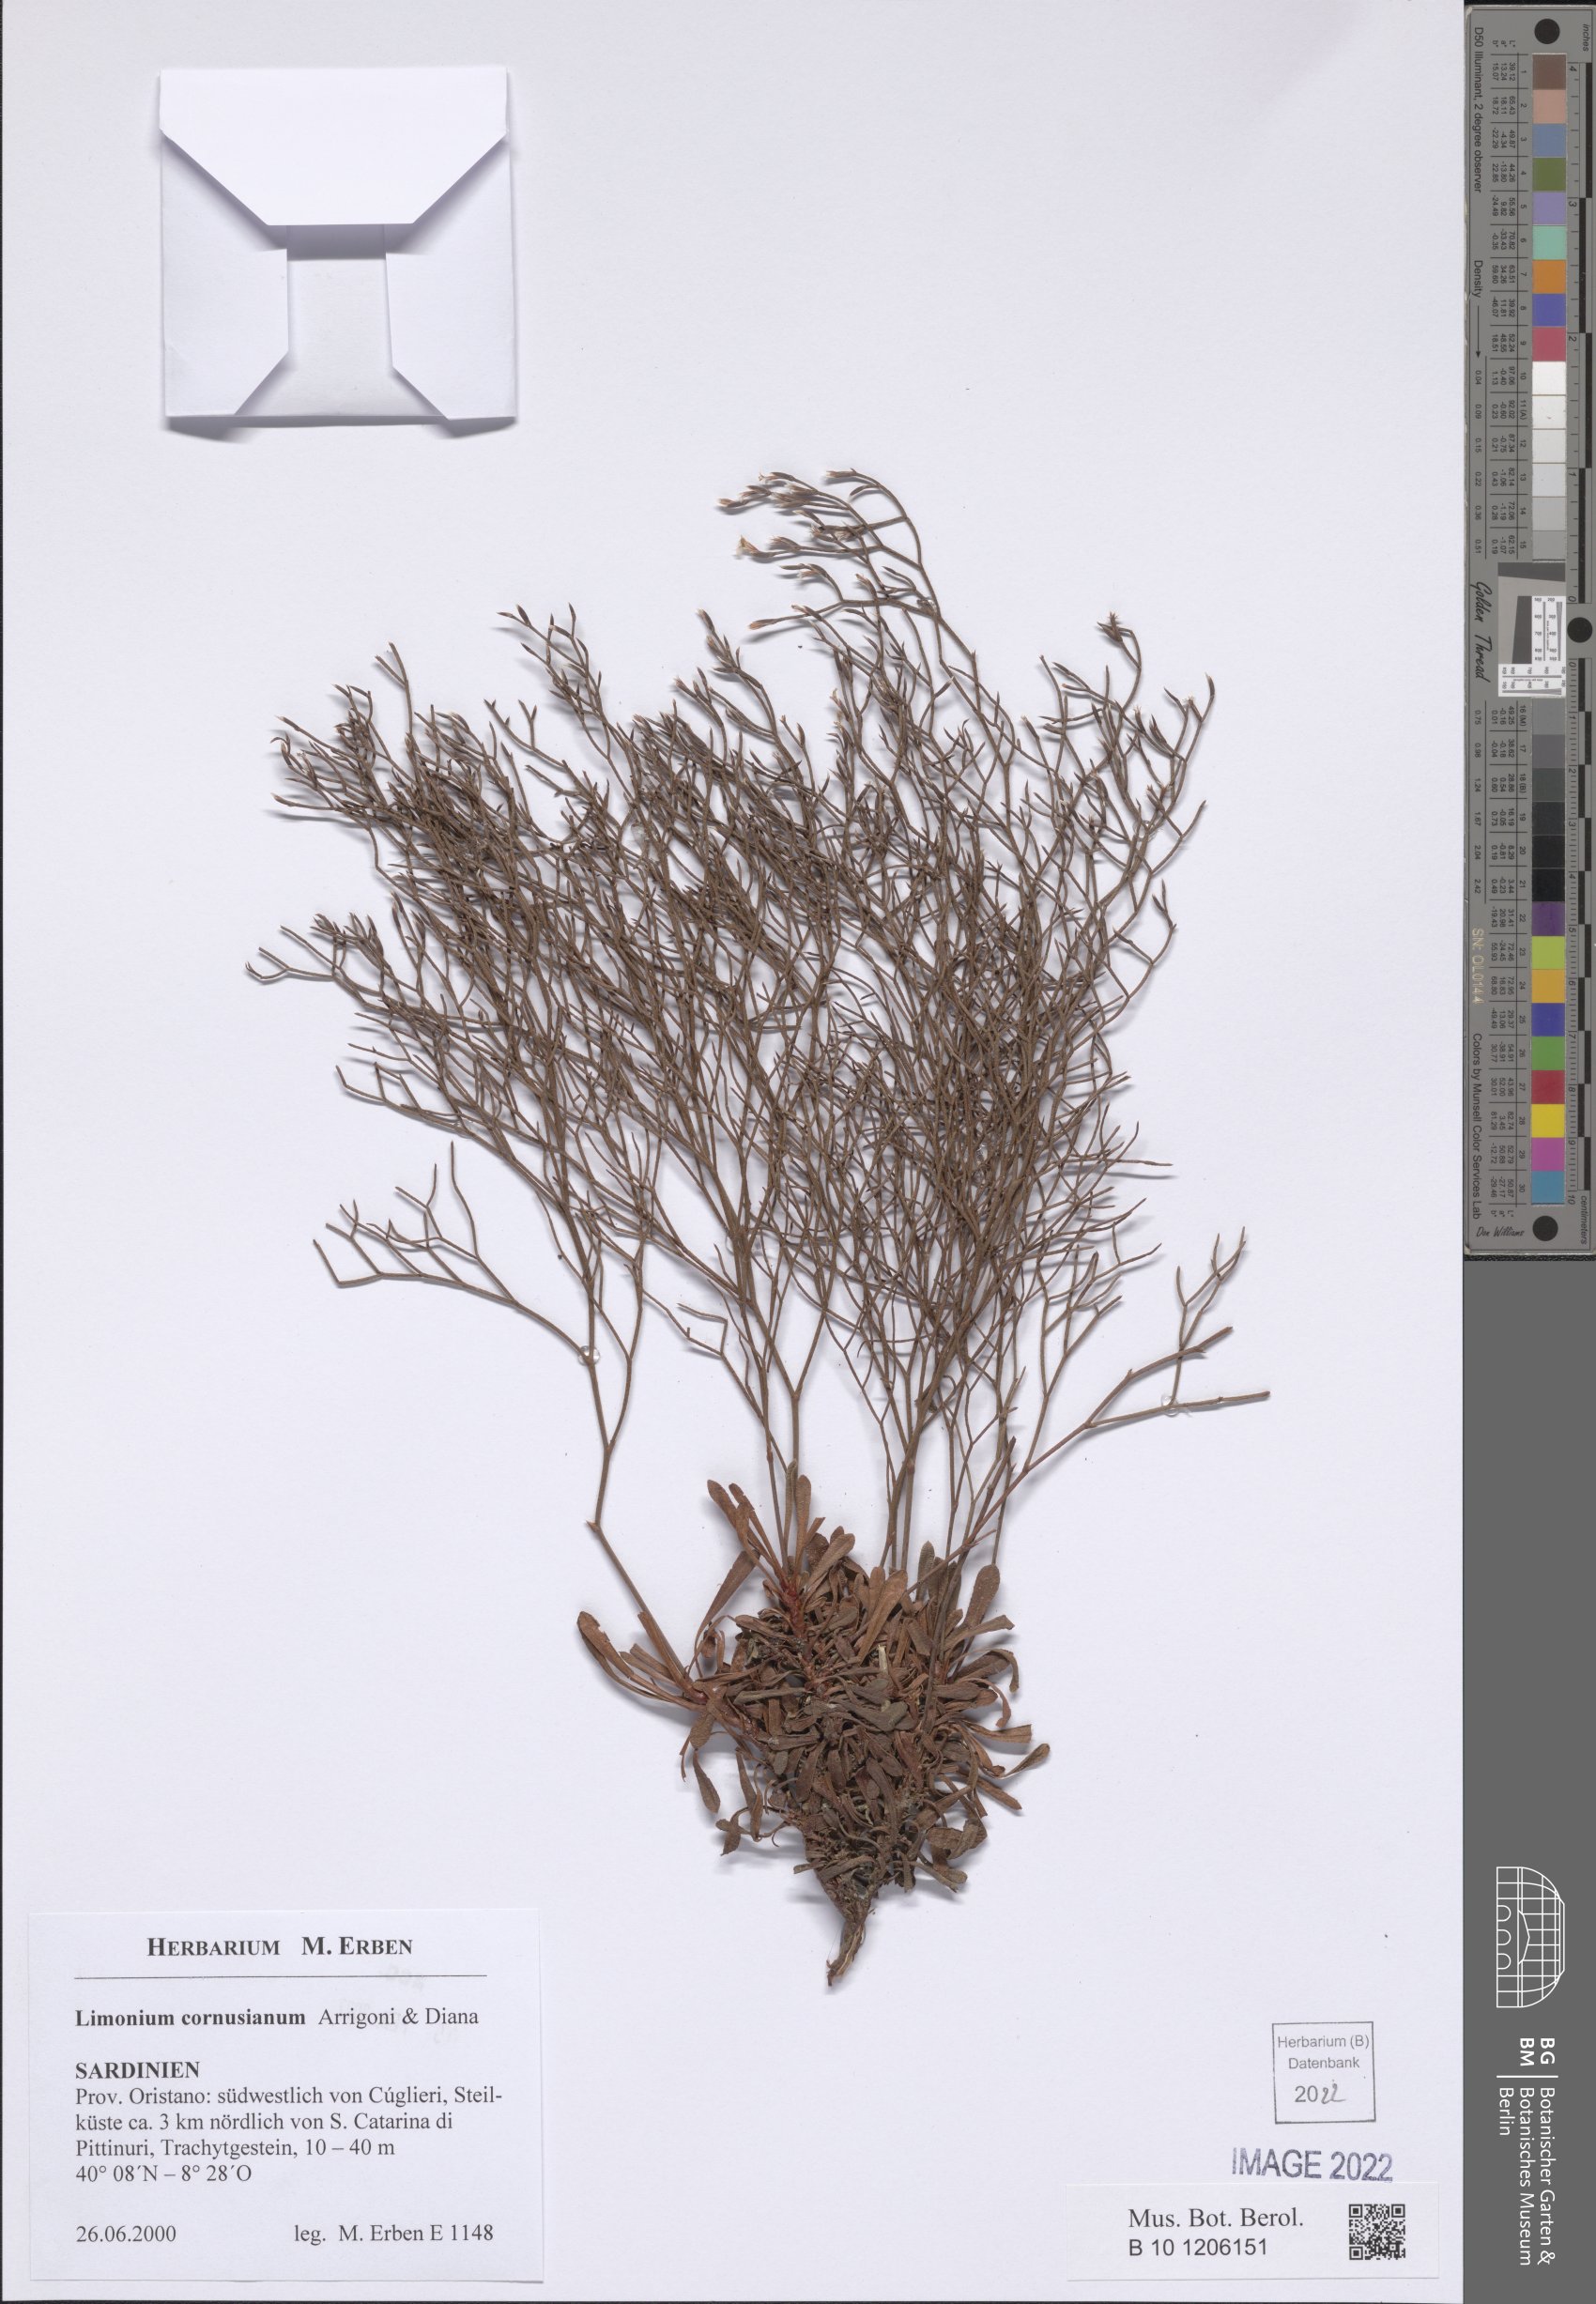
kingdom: Plantae
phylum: Tracheophyta
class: Magnoliopsida
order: Caryophyllales
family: Plumbaginaceae
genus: Limonium
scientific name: Limonium acutifolium
